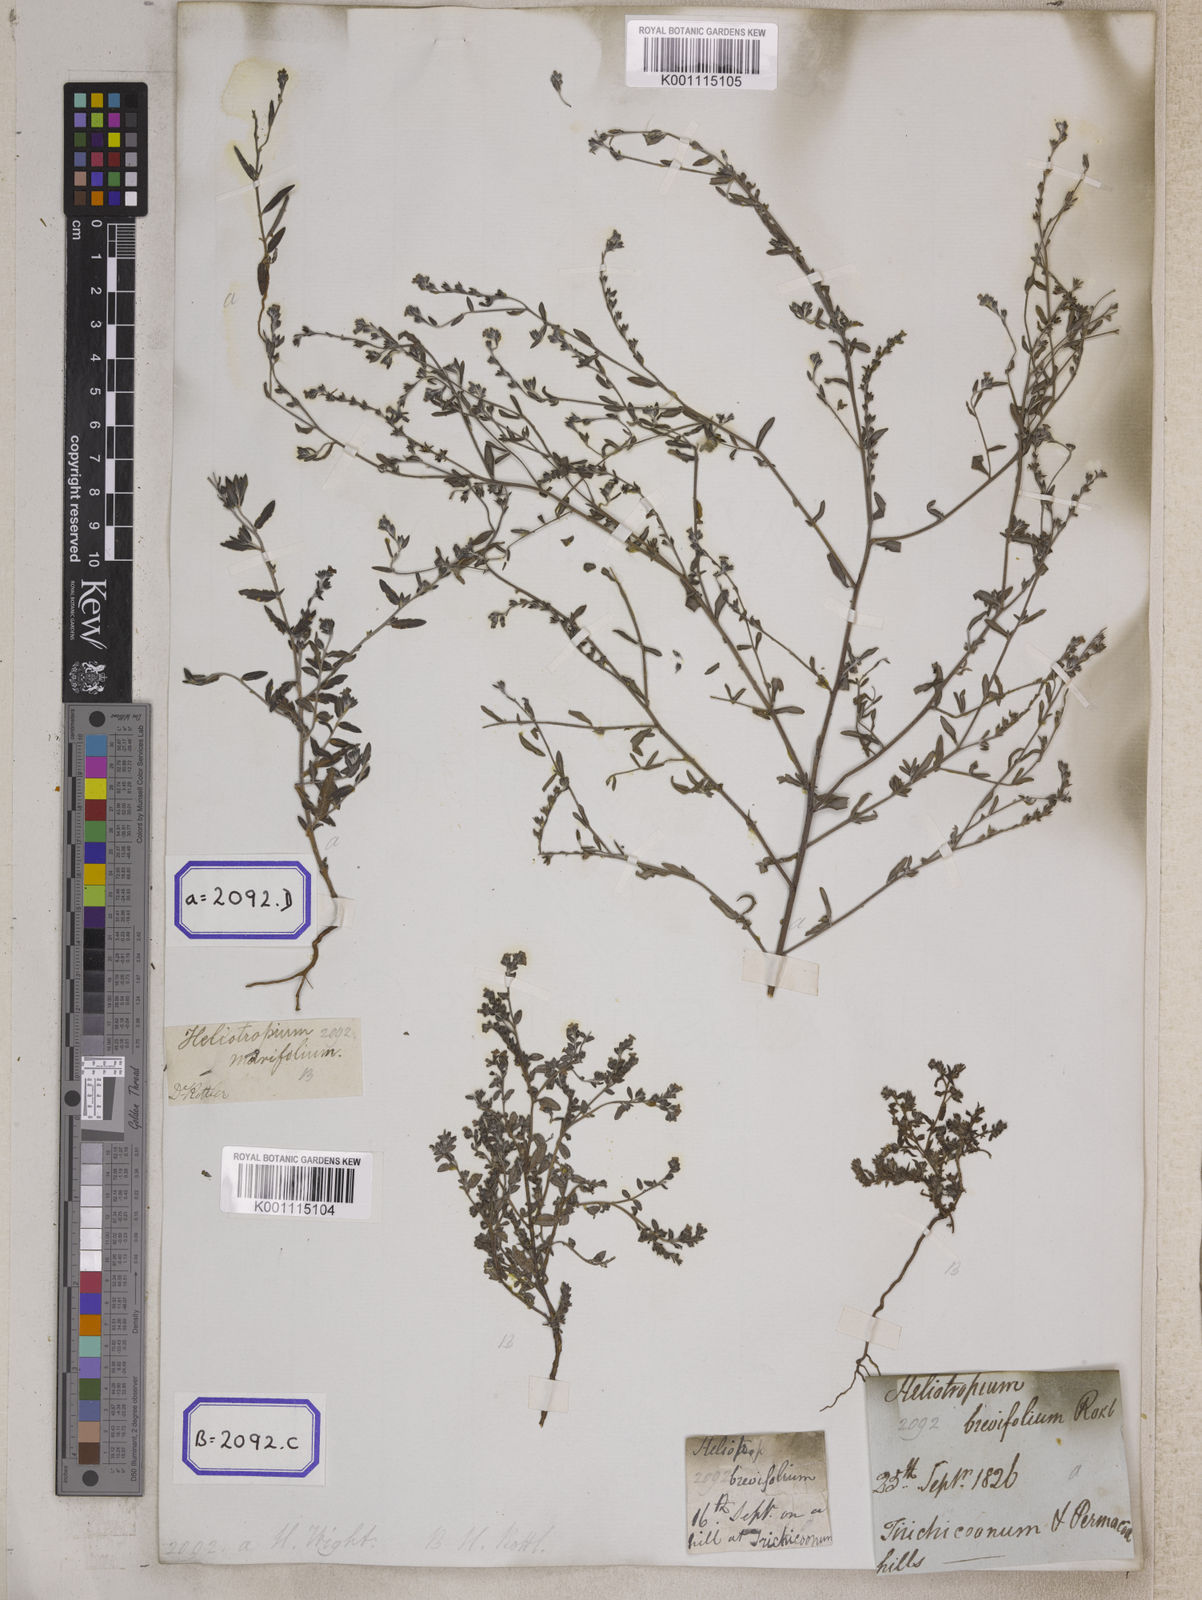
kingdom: Plantae
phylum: Tracheophyta
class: Magnoliopsida
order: Boraginales
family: Heliotropiaceae
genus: Euploca
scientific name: Euploca marifolia
